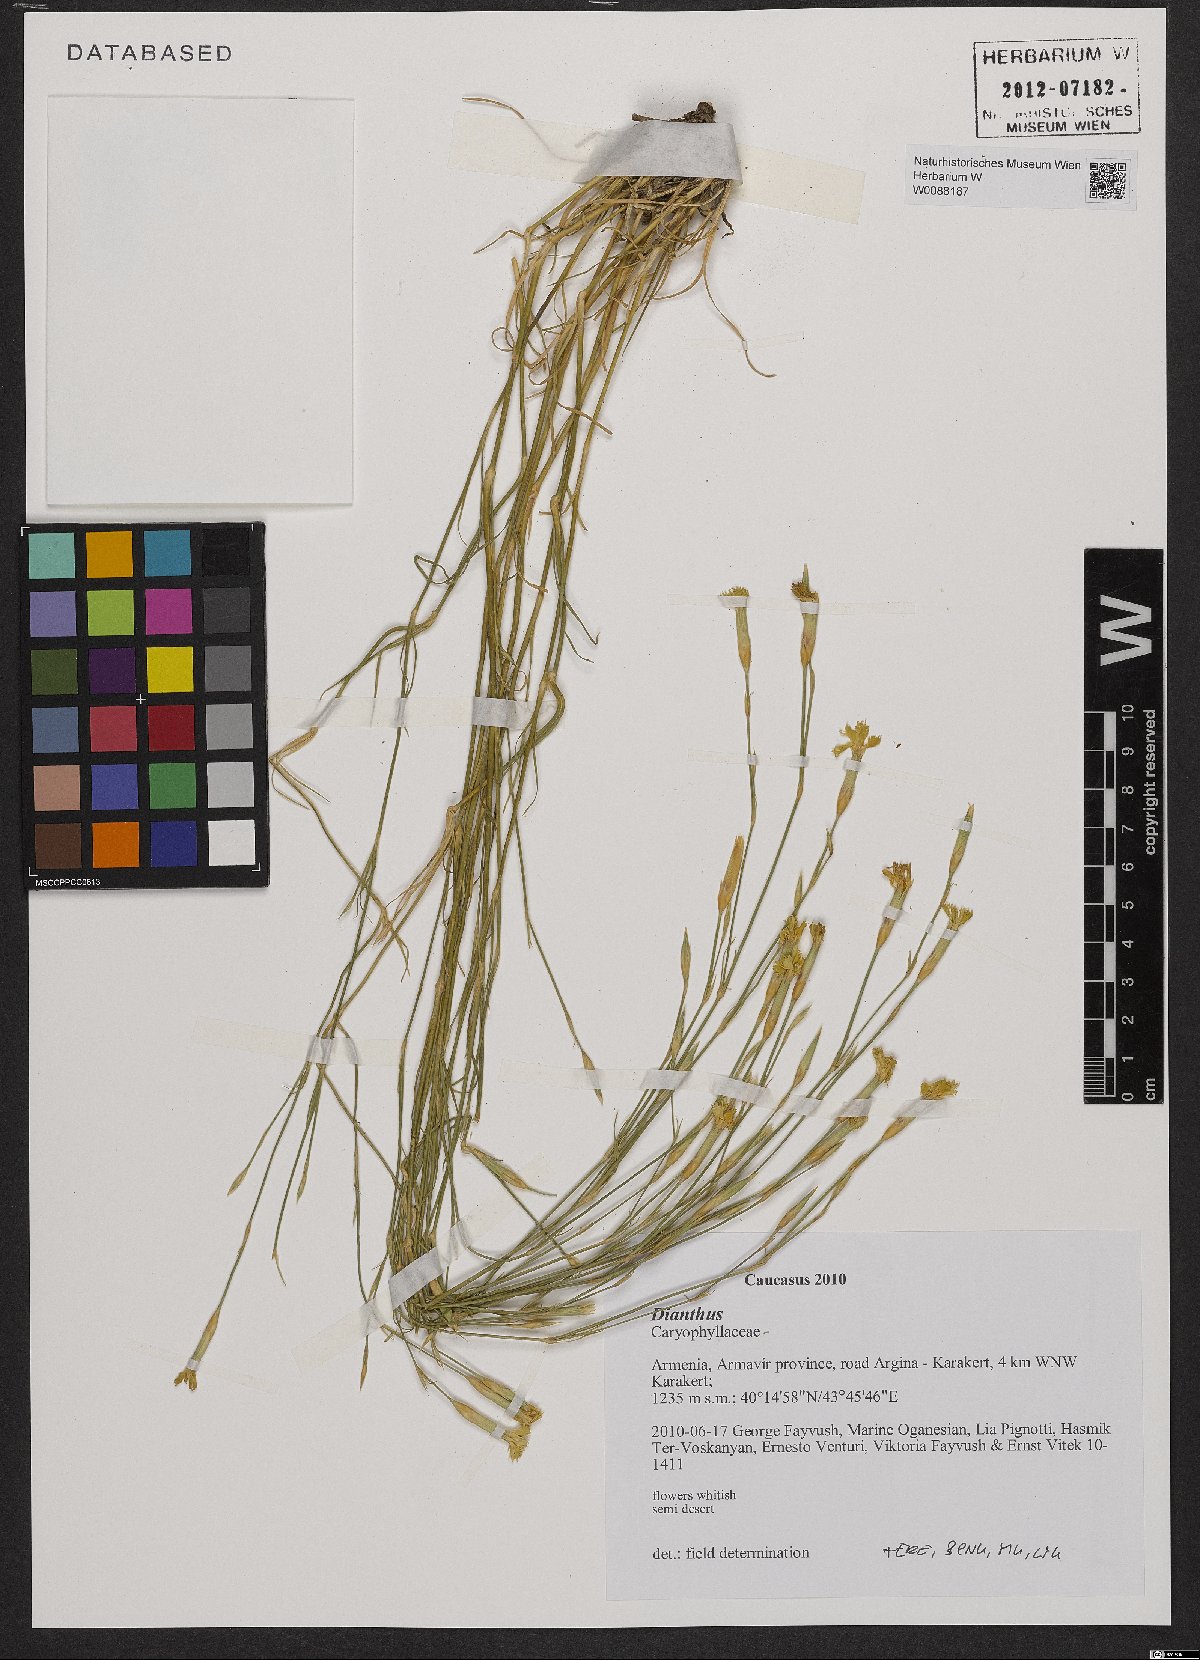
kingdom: Plantae
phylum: Tracheophyta
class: Magnoliopsida
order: Caryophyllales
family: Caryophyllaceae
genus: Dianthus
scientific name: Dianthus
